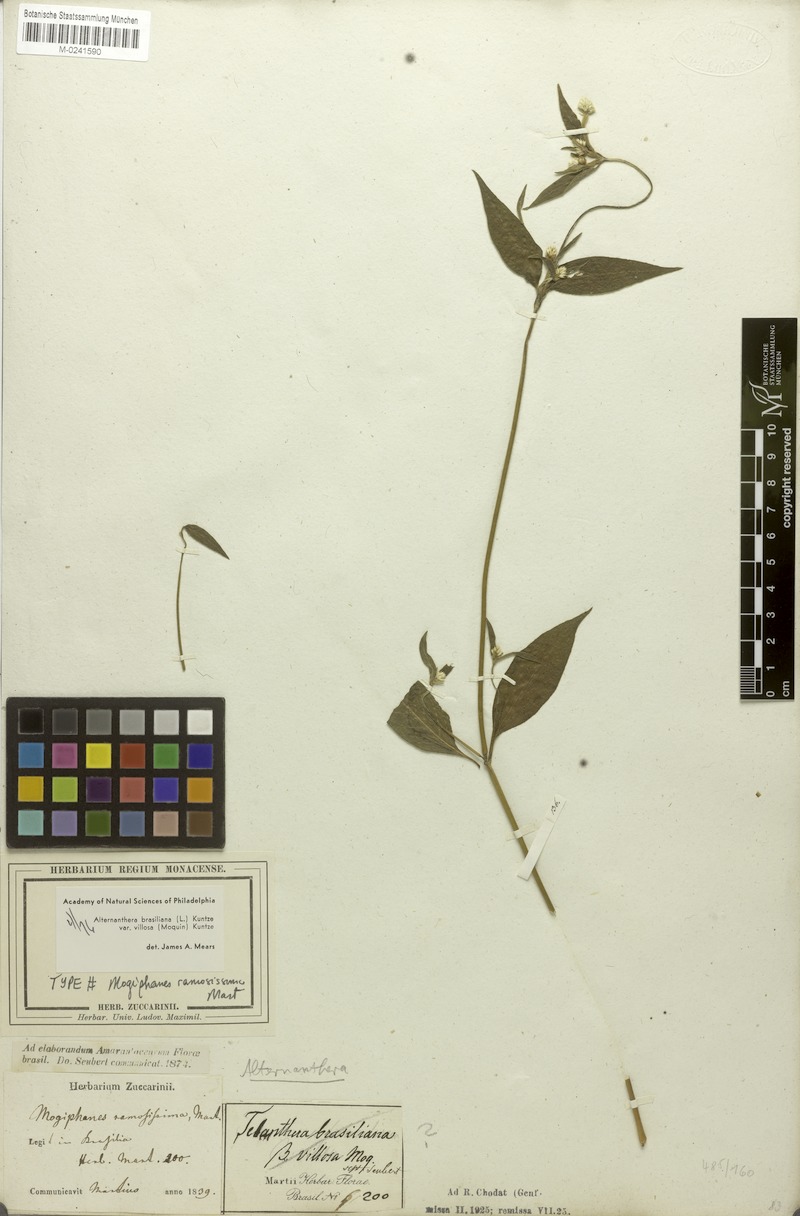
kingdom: Plantae
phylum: Tracheophyta
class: Magnoliopsida
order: Caryophyllales
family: Amaranthaceae
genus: Alternanthera
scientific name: Alternanthera ramosissima
